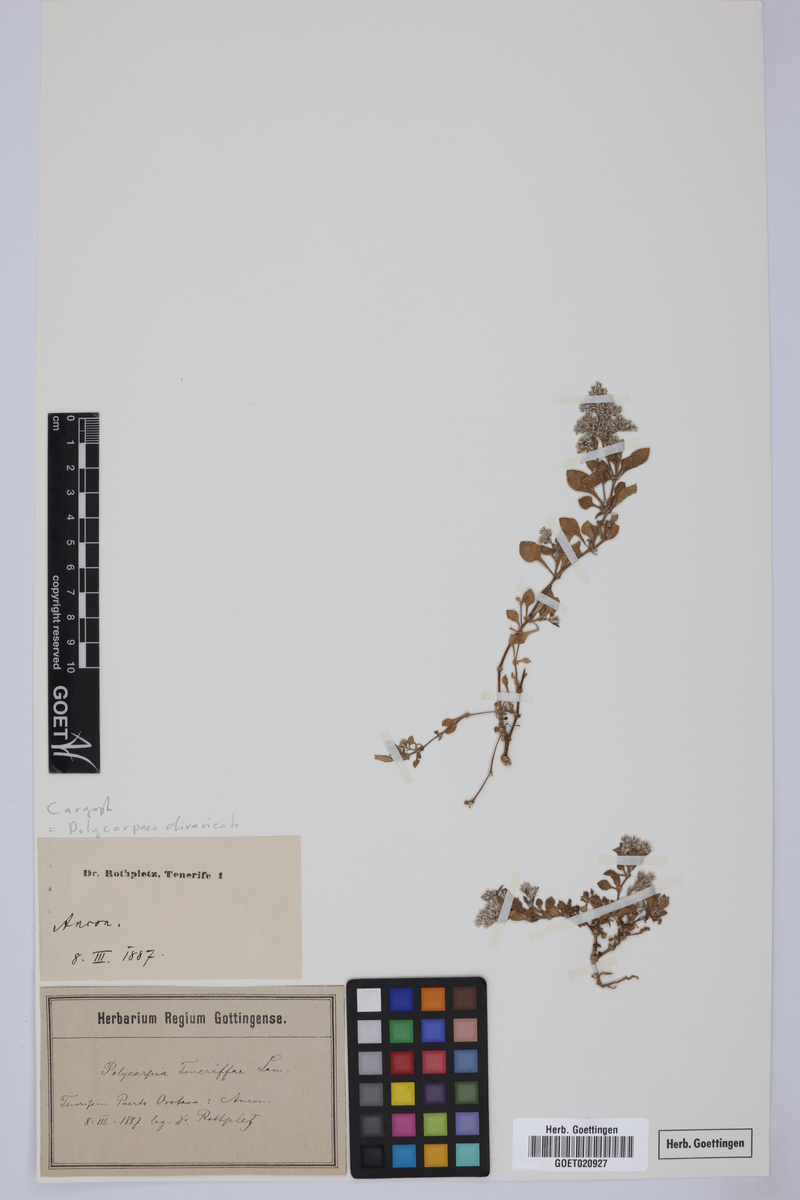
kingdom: Plantae
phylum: Tracheophyta
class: Magnoliopsida
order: Caryophyllales
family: Caryophyllaceae
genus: Polycarpaea
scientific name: Polycarpaea divaricata
